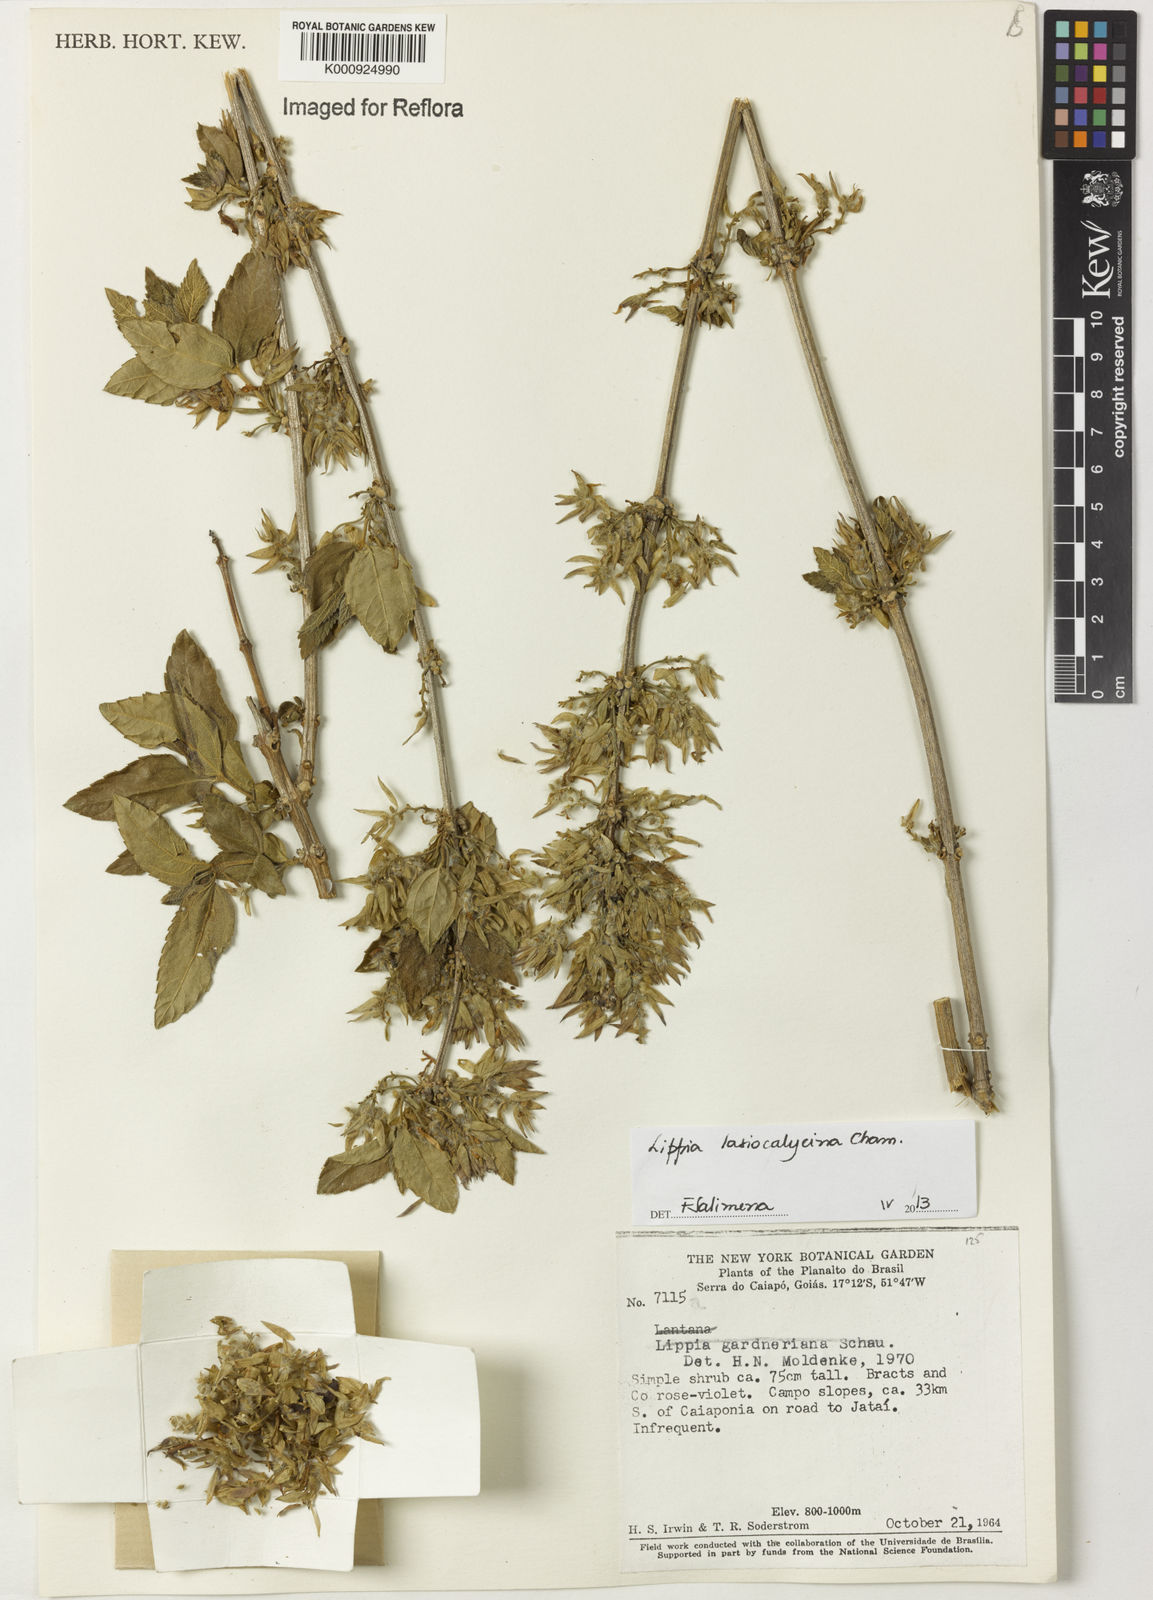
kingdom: Plantae
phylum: Tracheophyta
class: Magnoliopsida
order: Lamiales
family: Verbenaceae
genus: Lippia
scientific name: Lippia lasiocalycina
